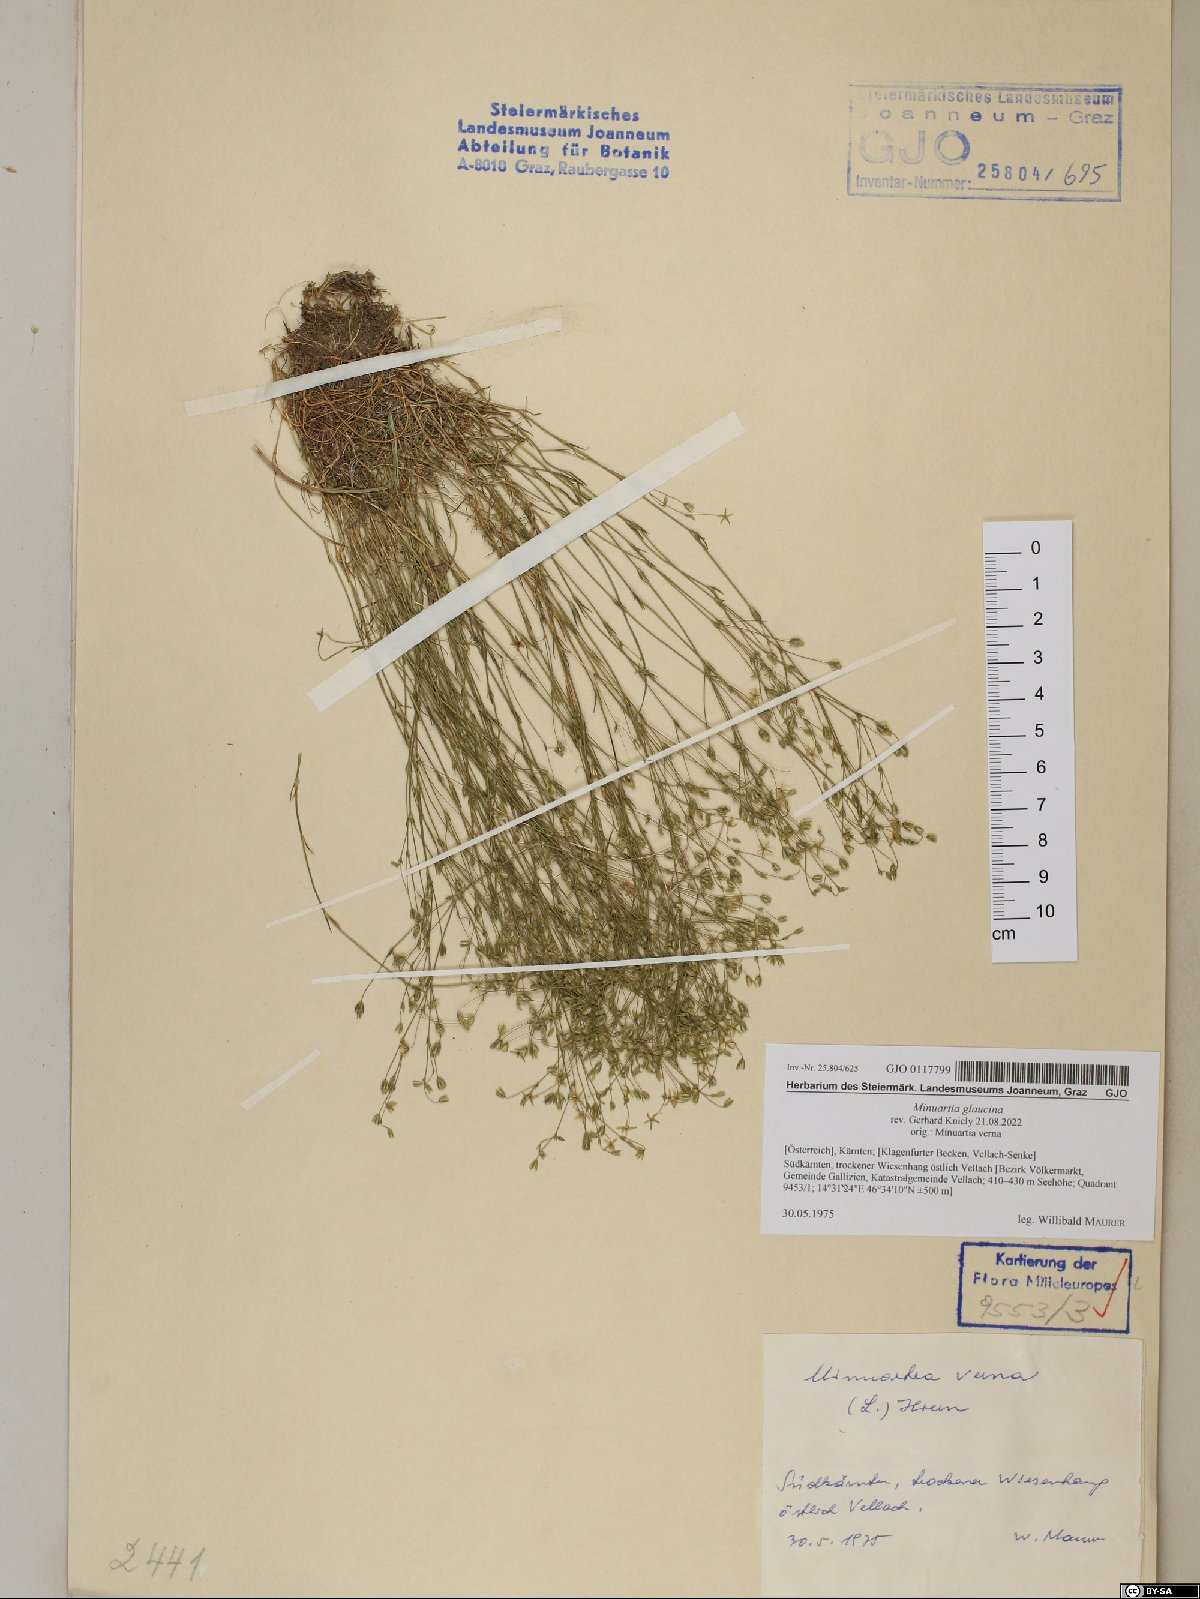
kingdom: Plantae
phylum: Tracheophyta
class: Magnoliopsida
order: Caryophyllales
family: Caryophyllaceae
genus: Sabulina
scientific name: Sabulina glaucina
